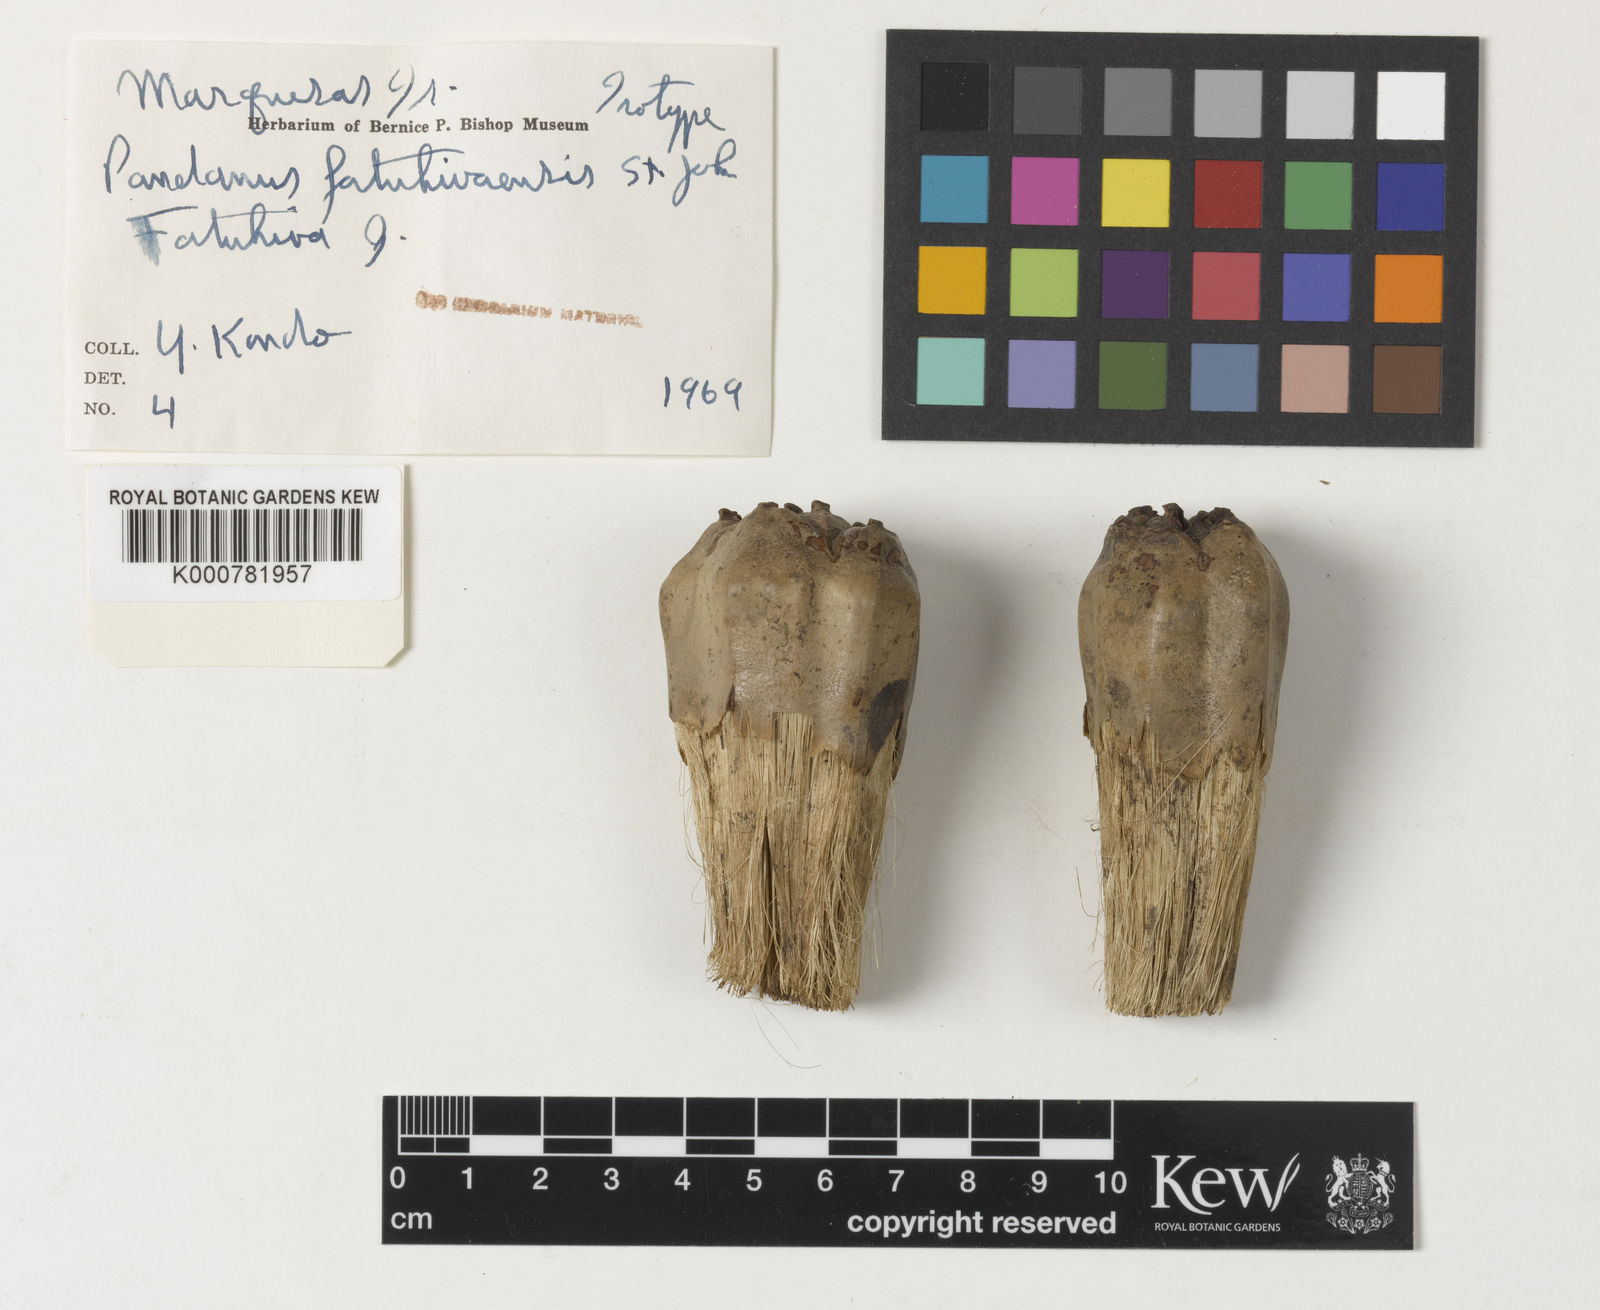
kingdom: Plantae
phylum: Tracheophyta
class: Liliopsida
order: Pandanales
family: Pandanaceae
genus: Pandanus
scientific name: Pandanus tectorius
